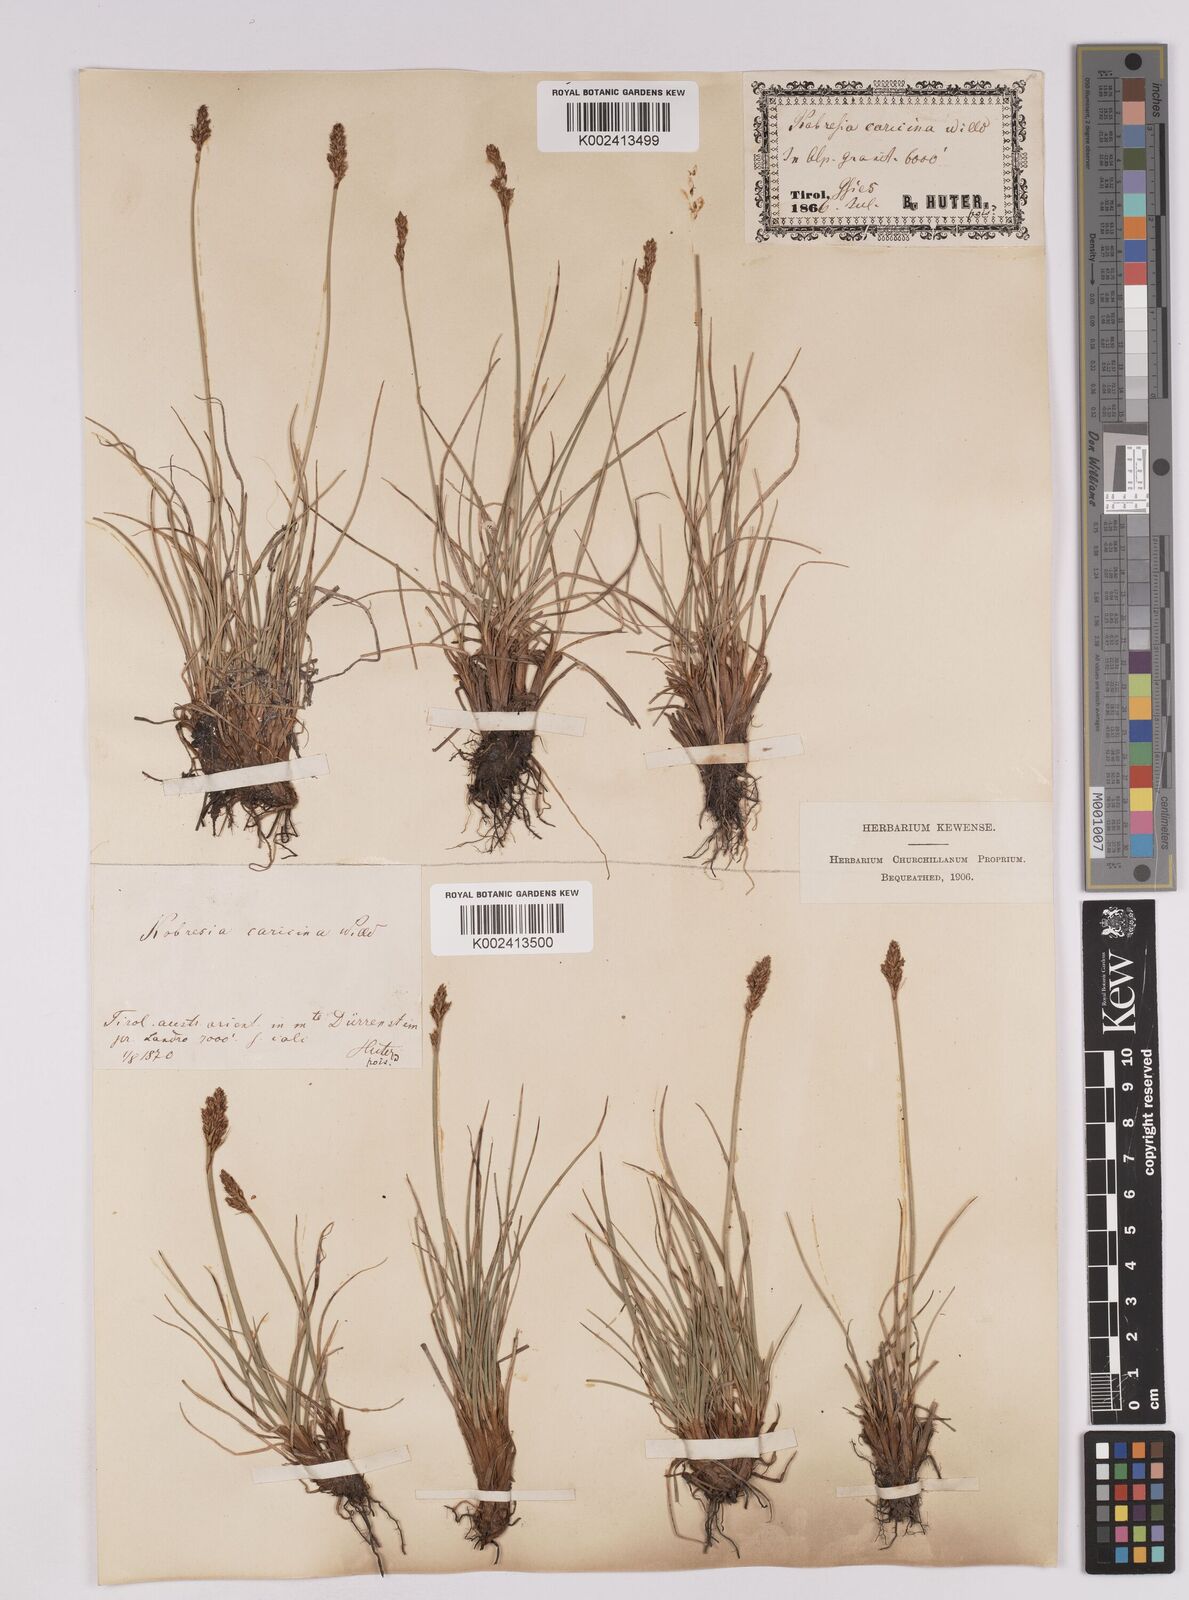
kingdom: Plantae
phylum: Tracheophyta
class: Liliopsida
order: Poales
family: Cyperaceae
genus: Carex
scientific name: Carex simpliciuscula
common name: Simple bog sedge
